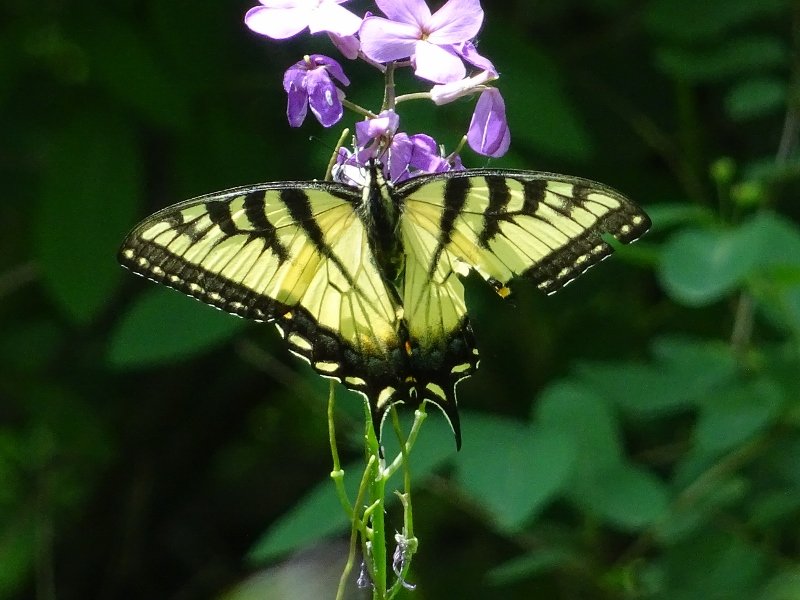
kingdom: Animalia
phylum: Arthropoda
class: Insecta
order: Lepidoptera
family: Papilionidae
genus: Pterourus
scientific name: Pterourus glaucus
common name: Eastern Tiger Swallowtail
